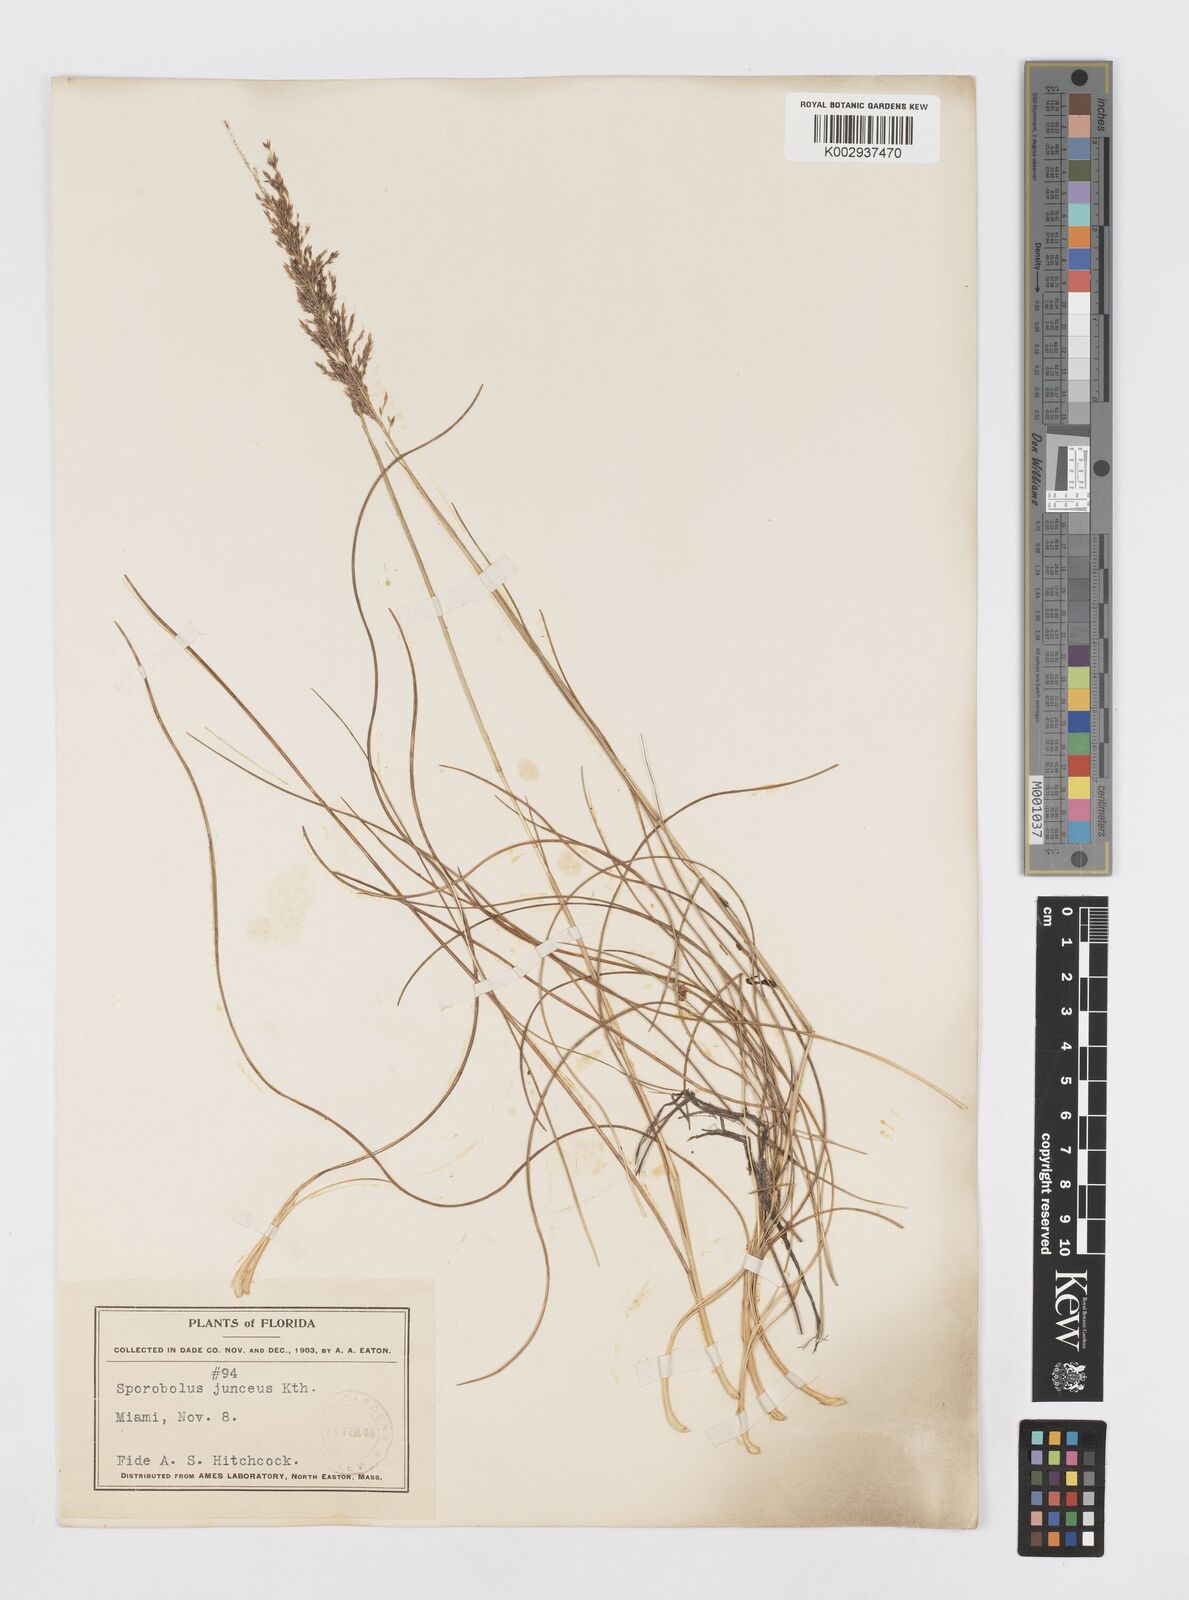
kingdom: Plantae
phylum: Tracheophyta
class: Liliopsida
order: Poales
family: Poaceae
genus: Sporobolus
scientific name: Sporobolus junceus
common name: Lizard grass
